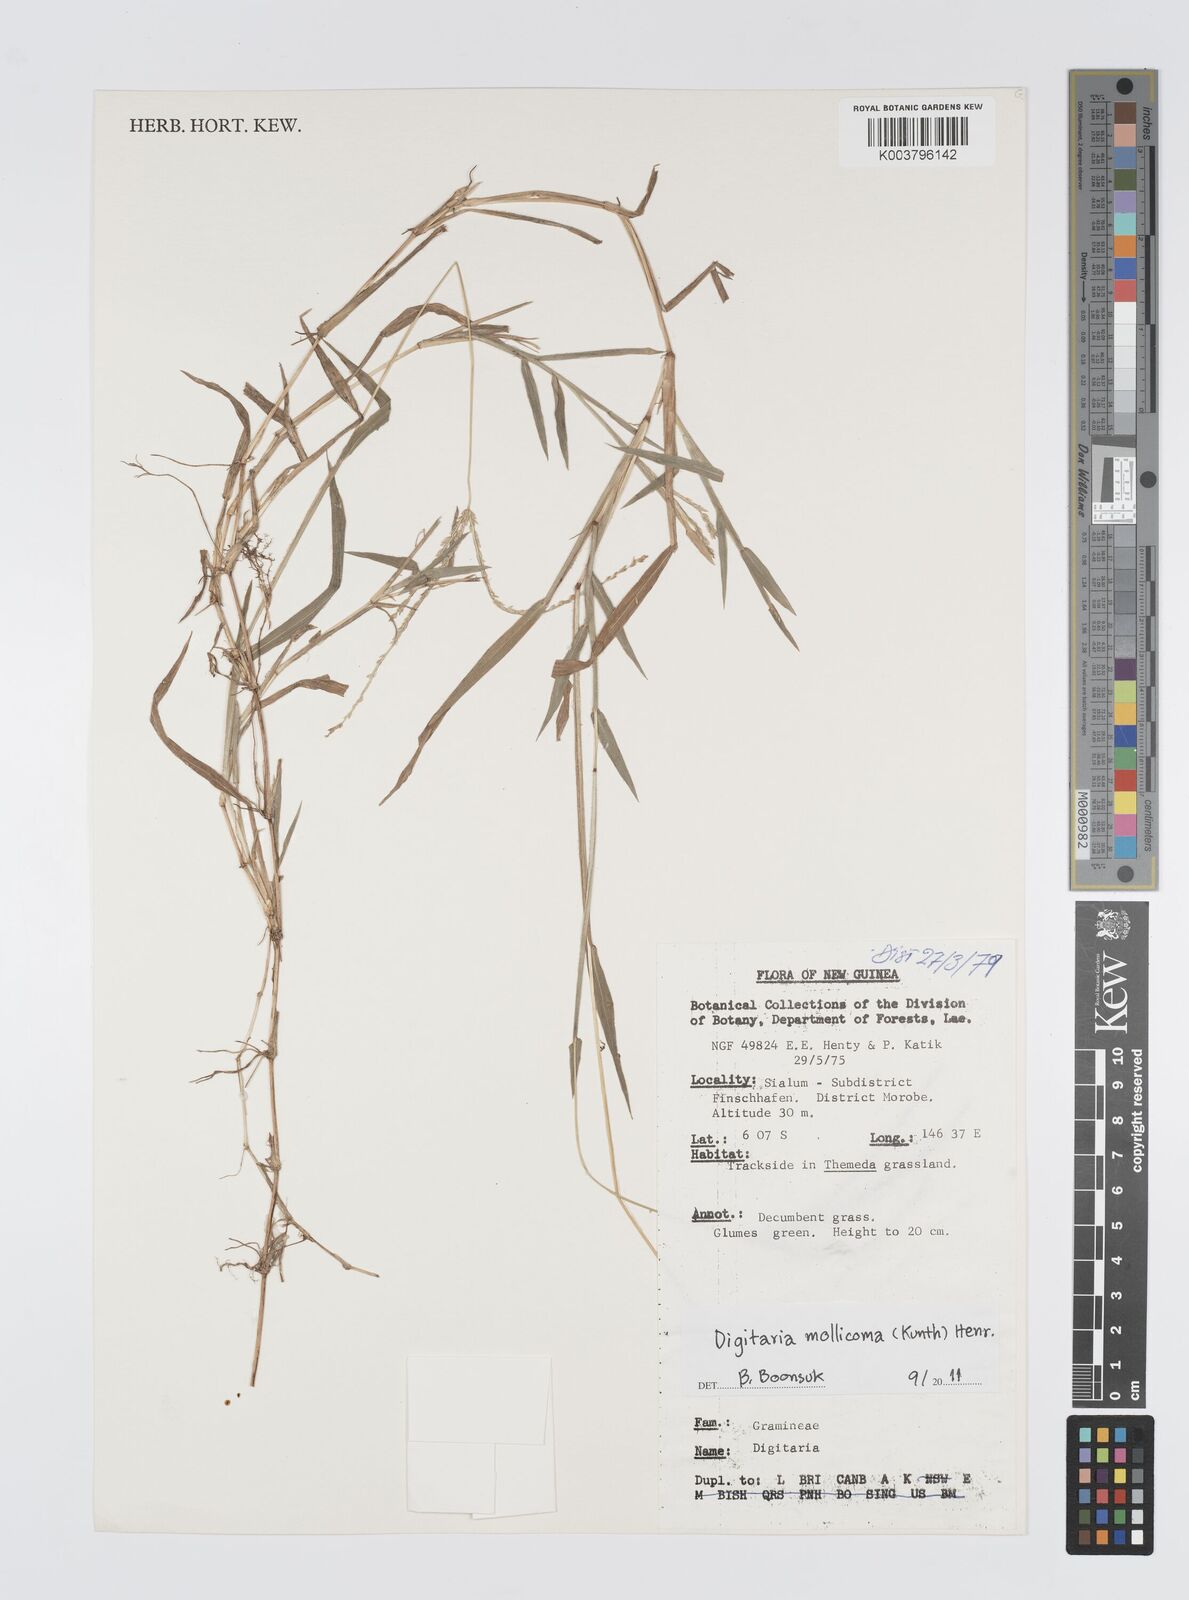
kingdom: Plantae
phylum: Tracheophyta
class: Liliopsida
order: Poales
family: Poaceae
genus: Digitaria
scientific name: Digitaria mollicoma
